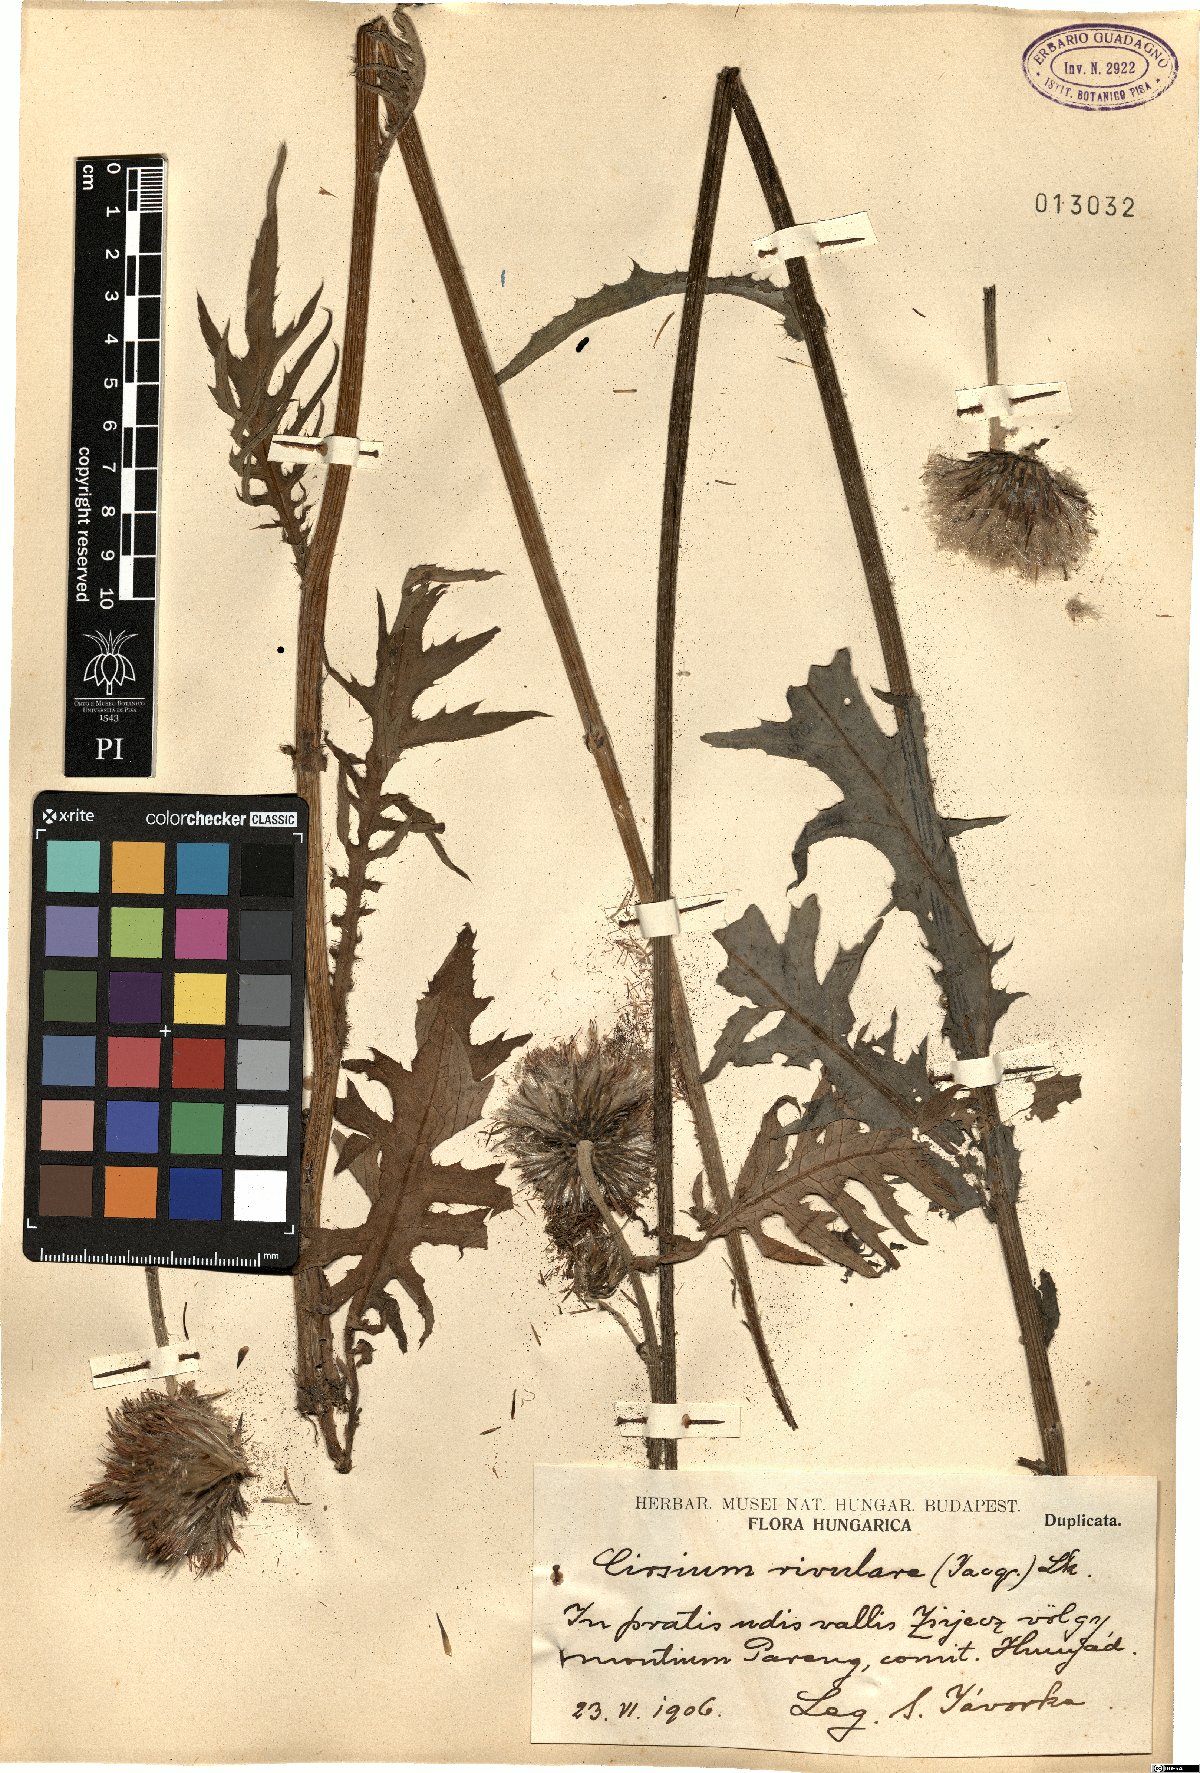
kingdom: Plantae
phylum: Tracheophyta
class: Magnoliopsida
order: Asterales
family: Asteraceae
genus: Cirsium
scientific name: Cirsium rivulare
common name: Brook thistle
